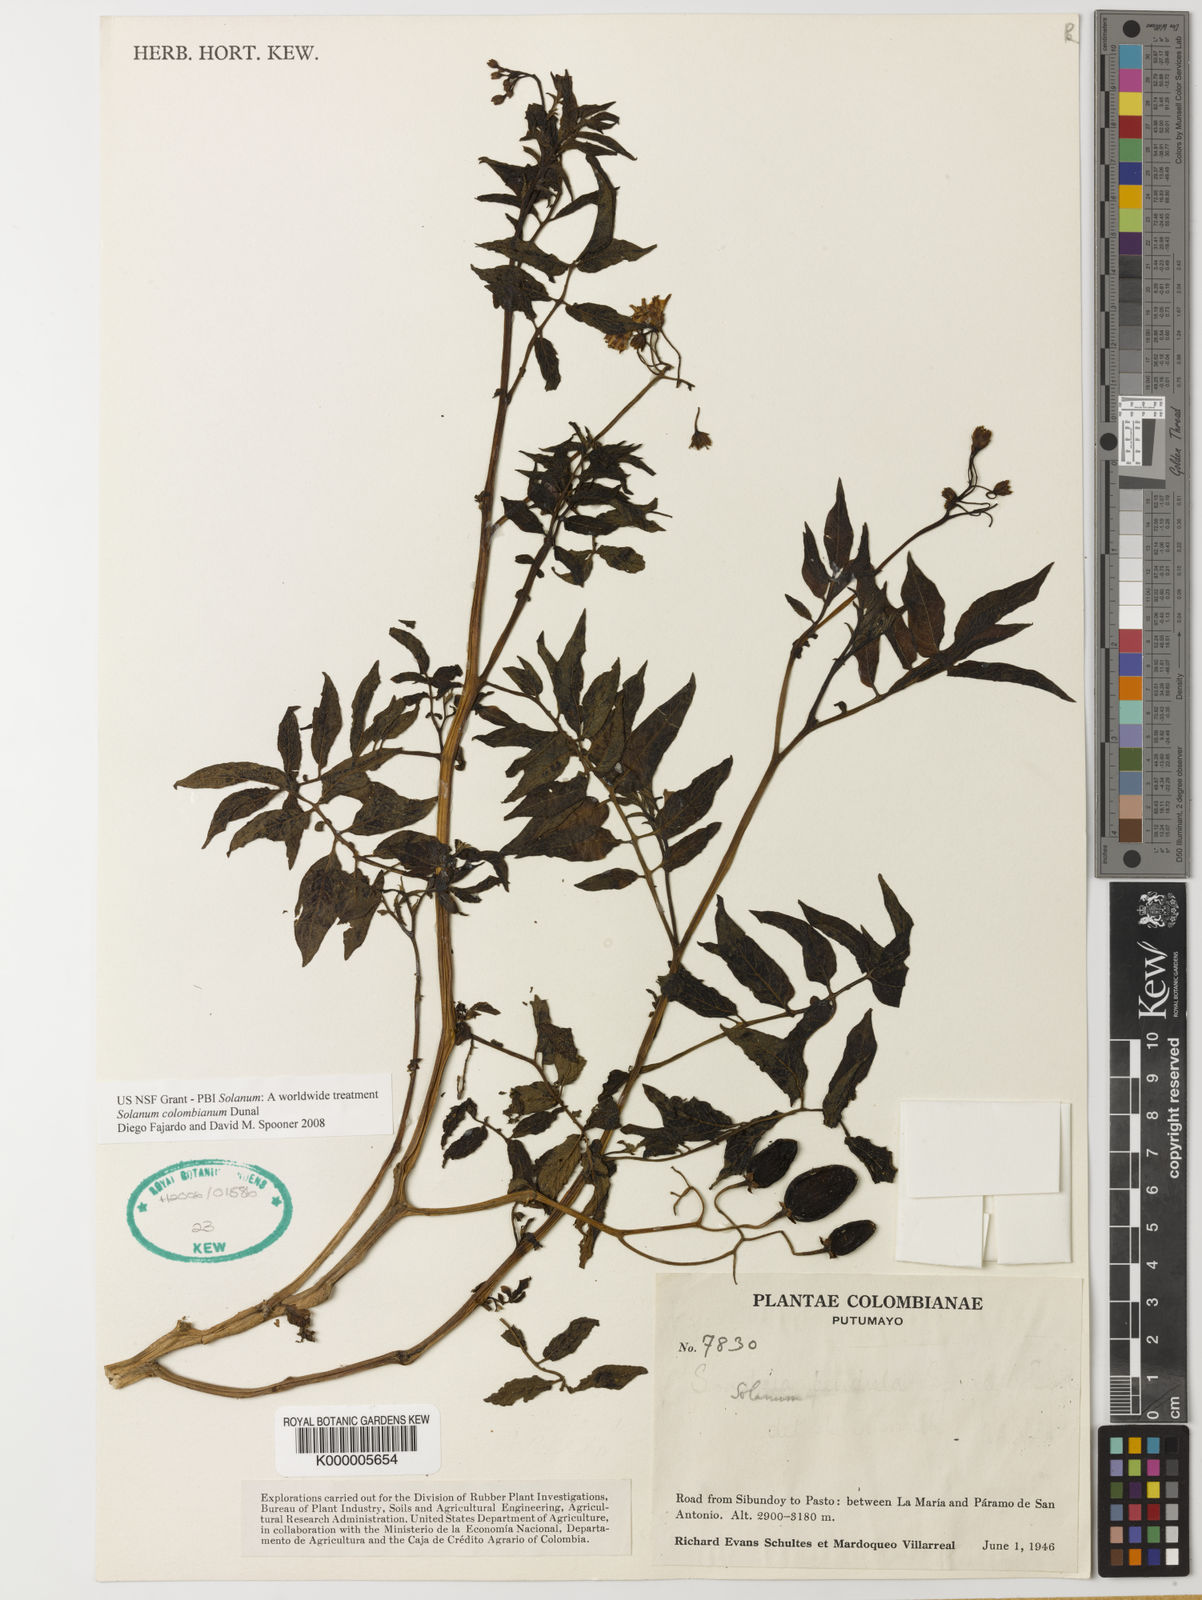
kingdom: Plantae
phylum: Tracheophyta
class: Magnoliopsida
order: Solanales
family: Solanaceae
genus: Solanum
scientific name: Solanum colombianum
